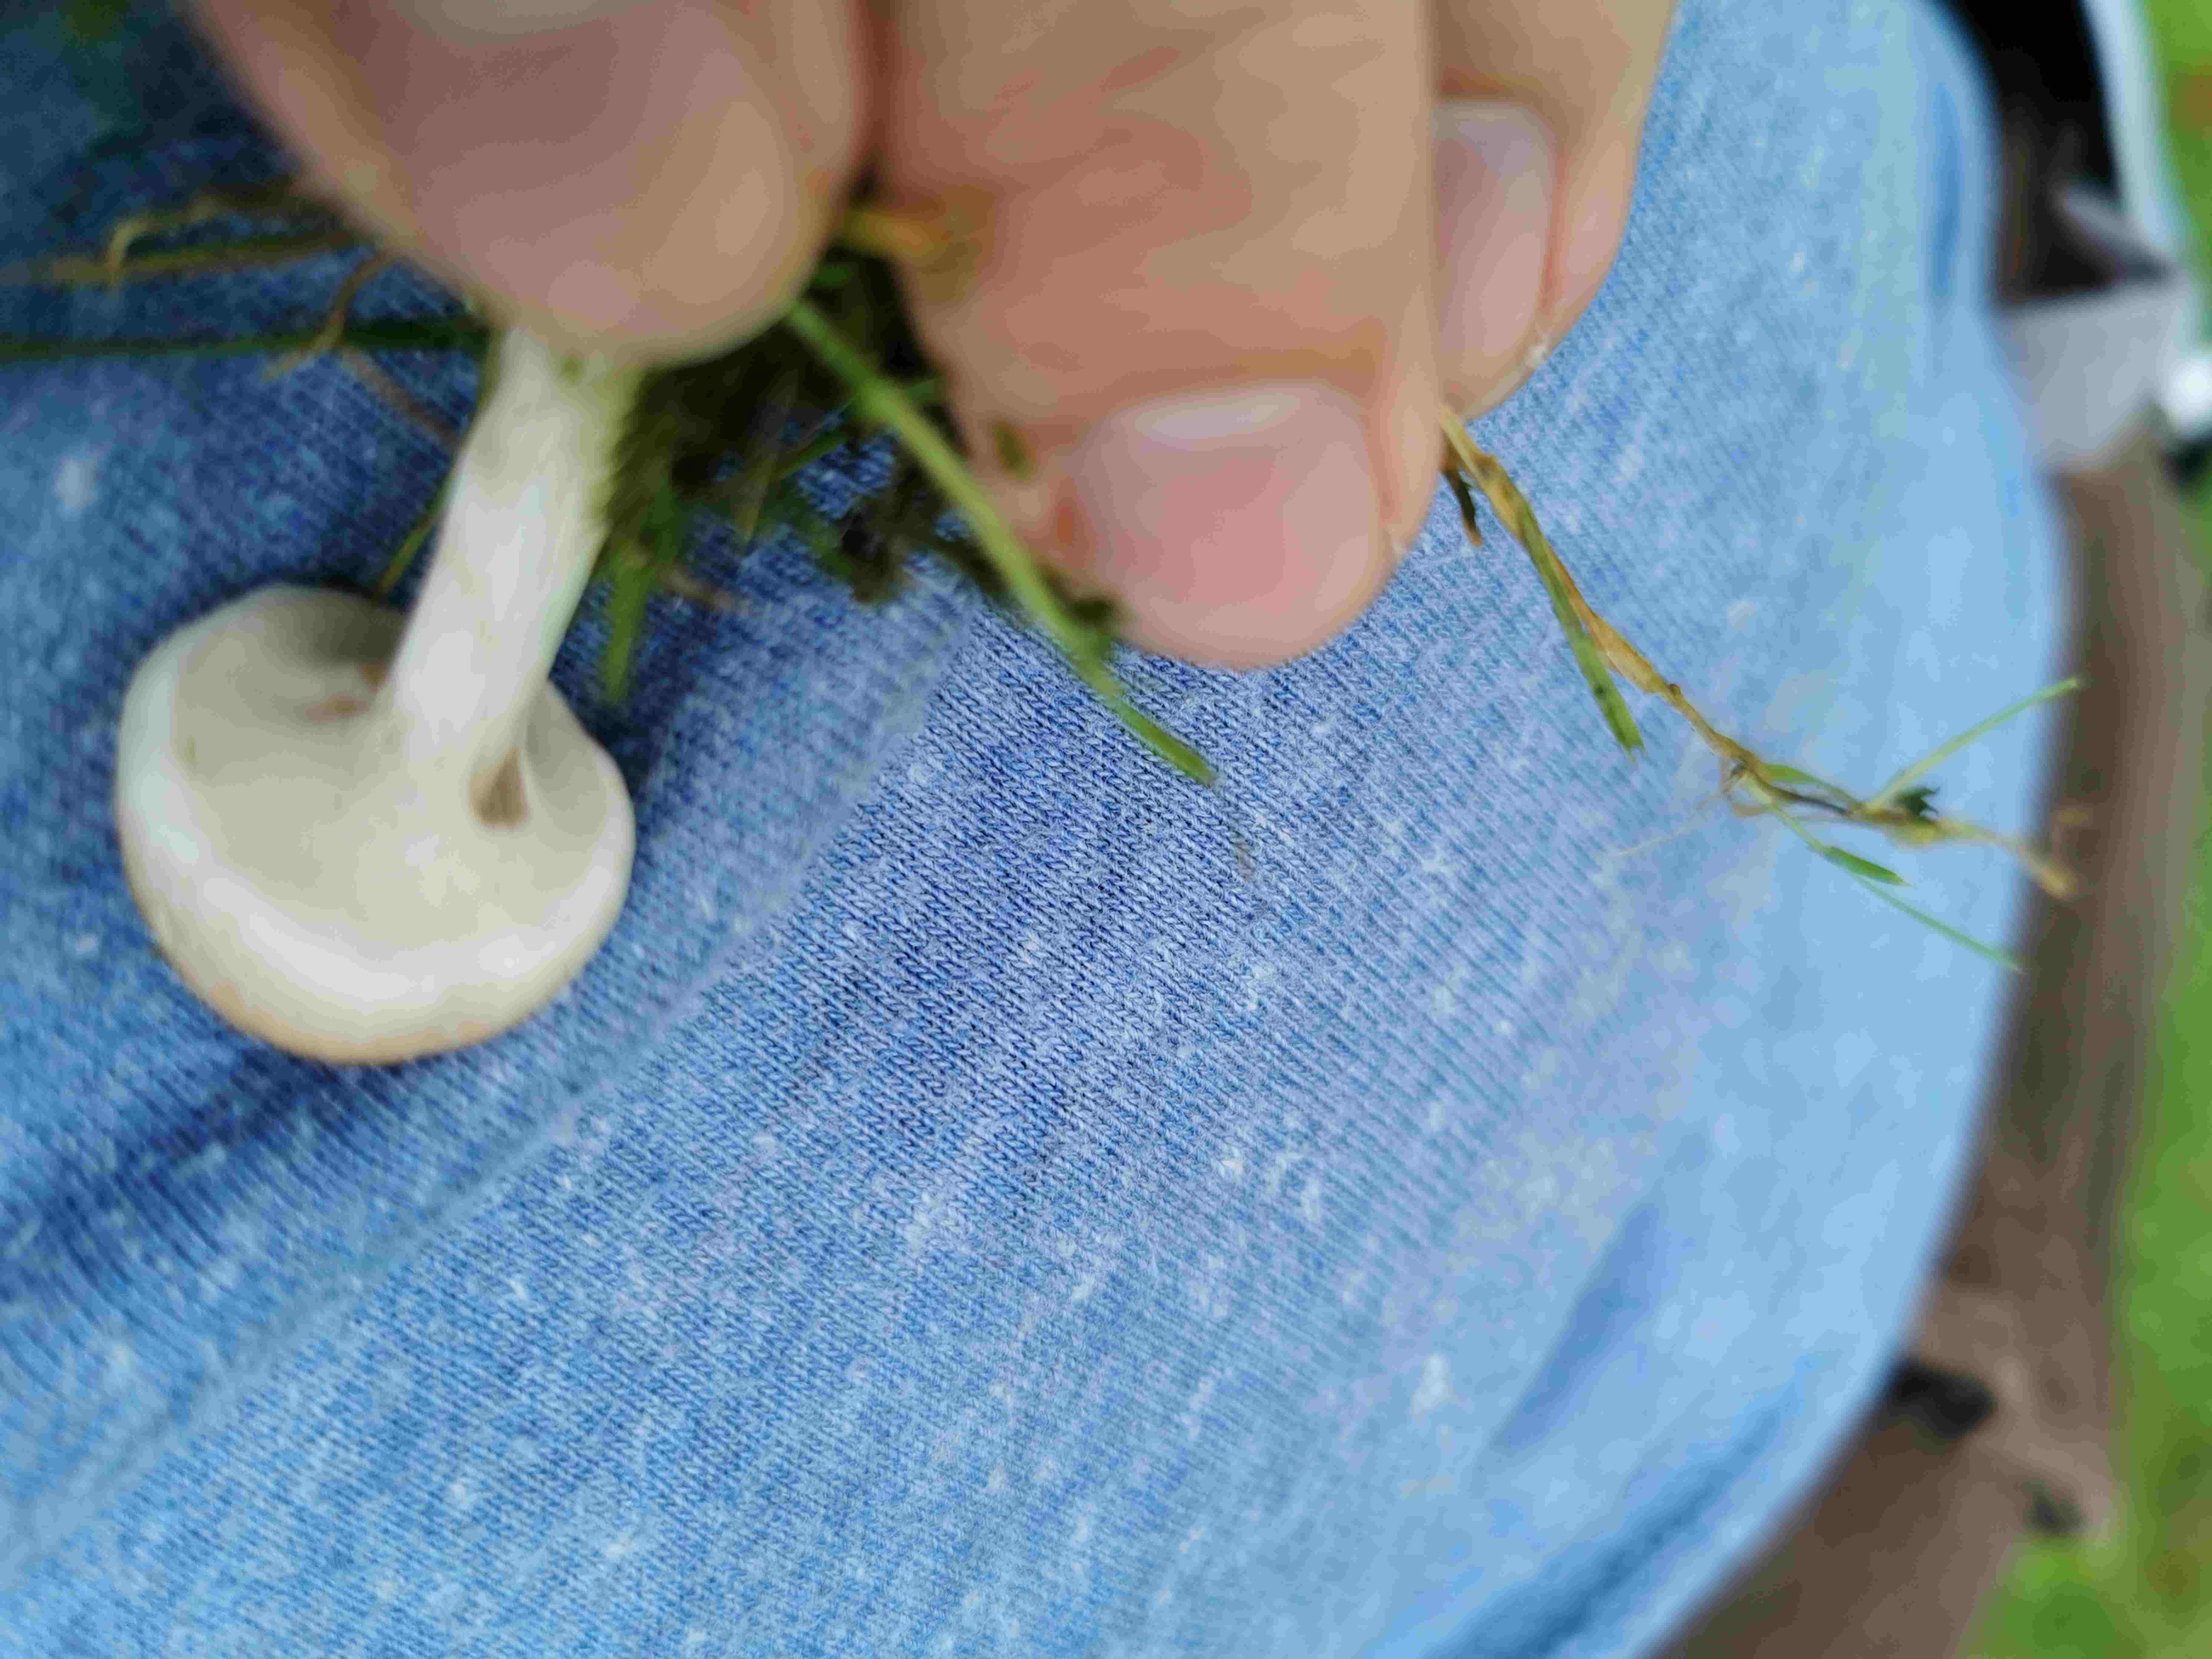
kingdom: Fungi
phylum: Basidiomycota
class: Agaricomycetes
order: Agaricales
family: Agaricaceae
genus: Lepiota
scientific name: Lepiota cristata
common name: stinkende parasolhat
